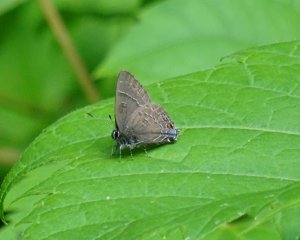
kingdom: Animalia
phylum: Arthropoda
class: Insecta
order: Lepidoptera
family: Lycaenidae
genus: Satyrium
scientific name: Satyrium calanus
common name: Banded Hairstreak
